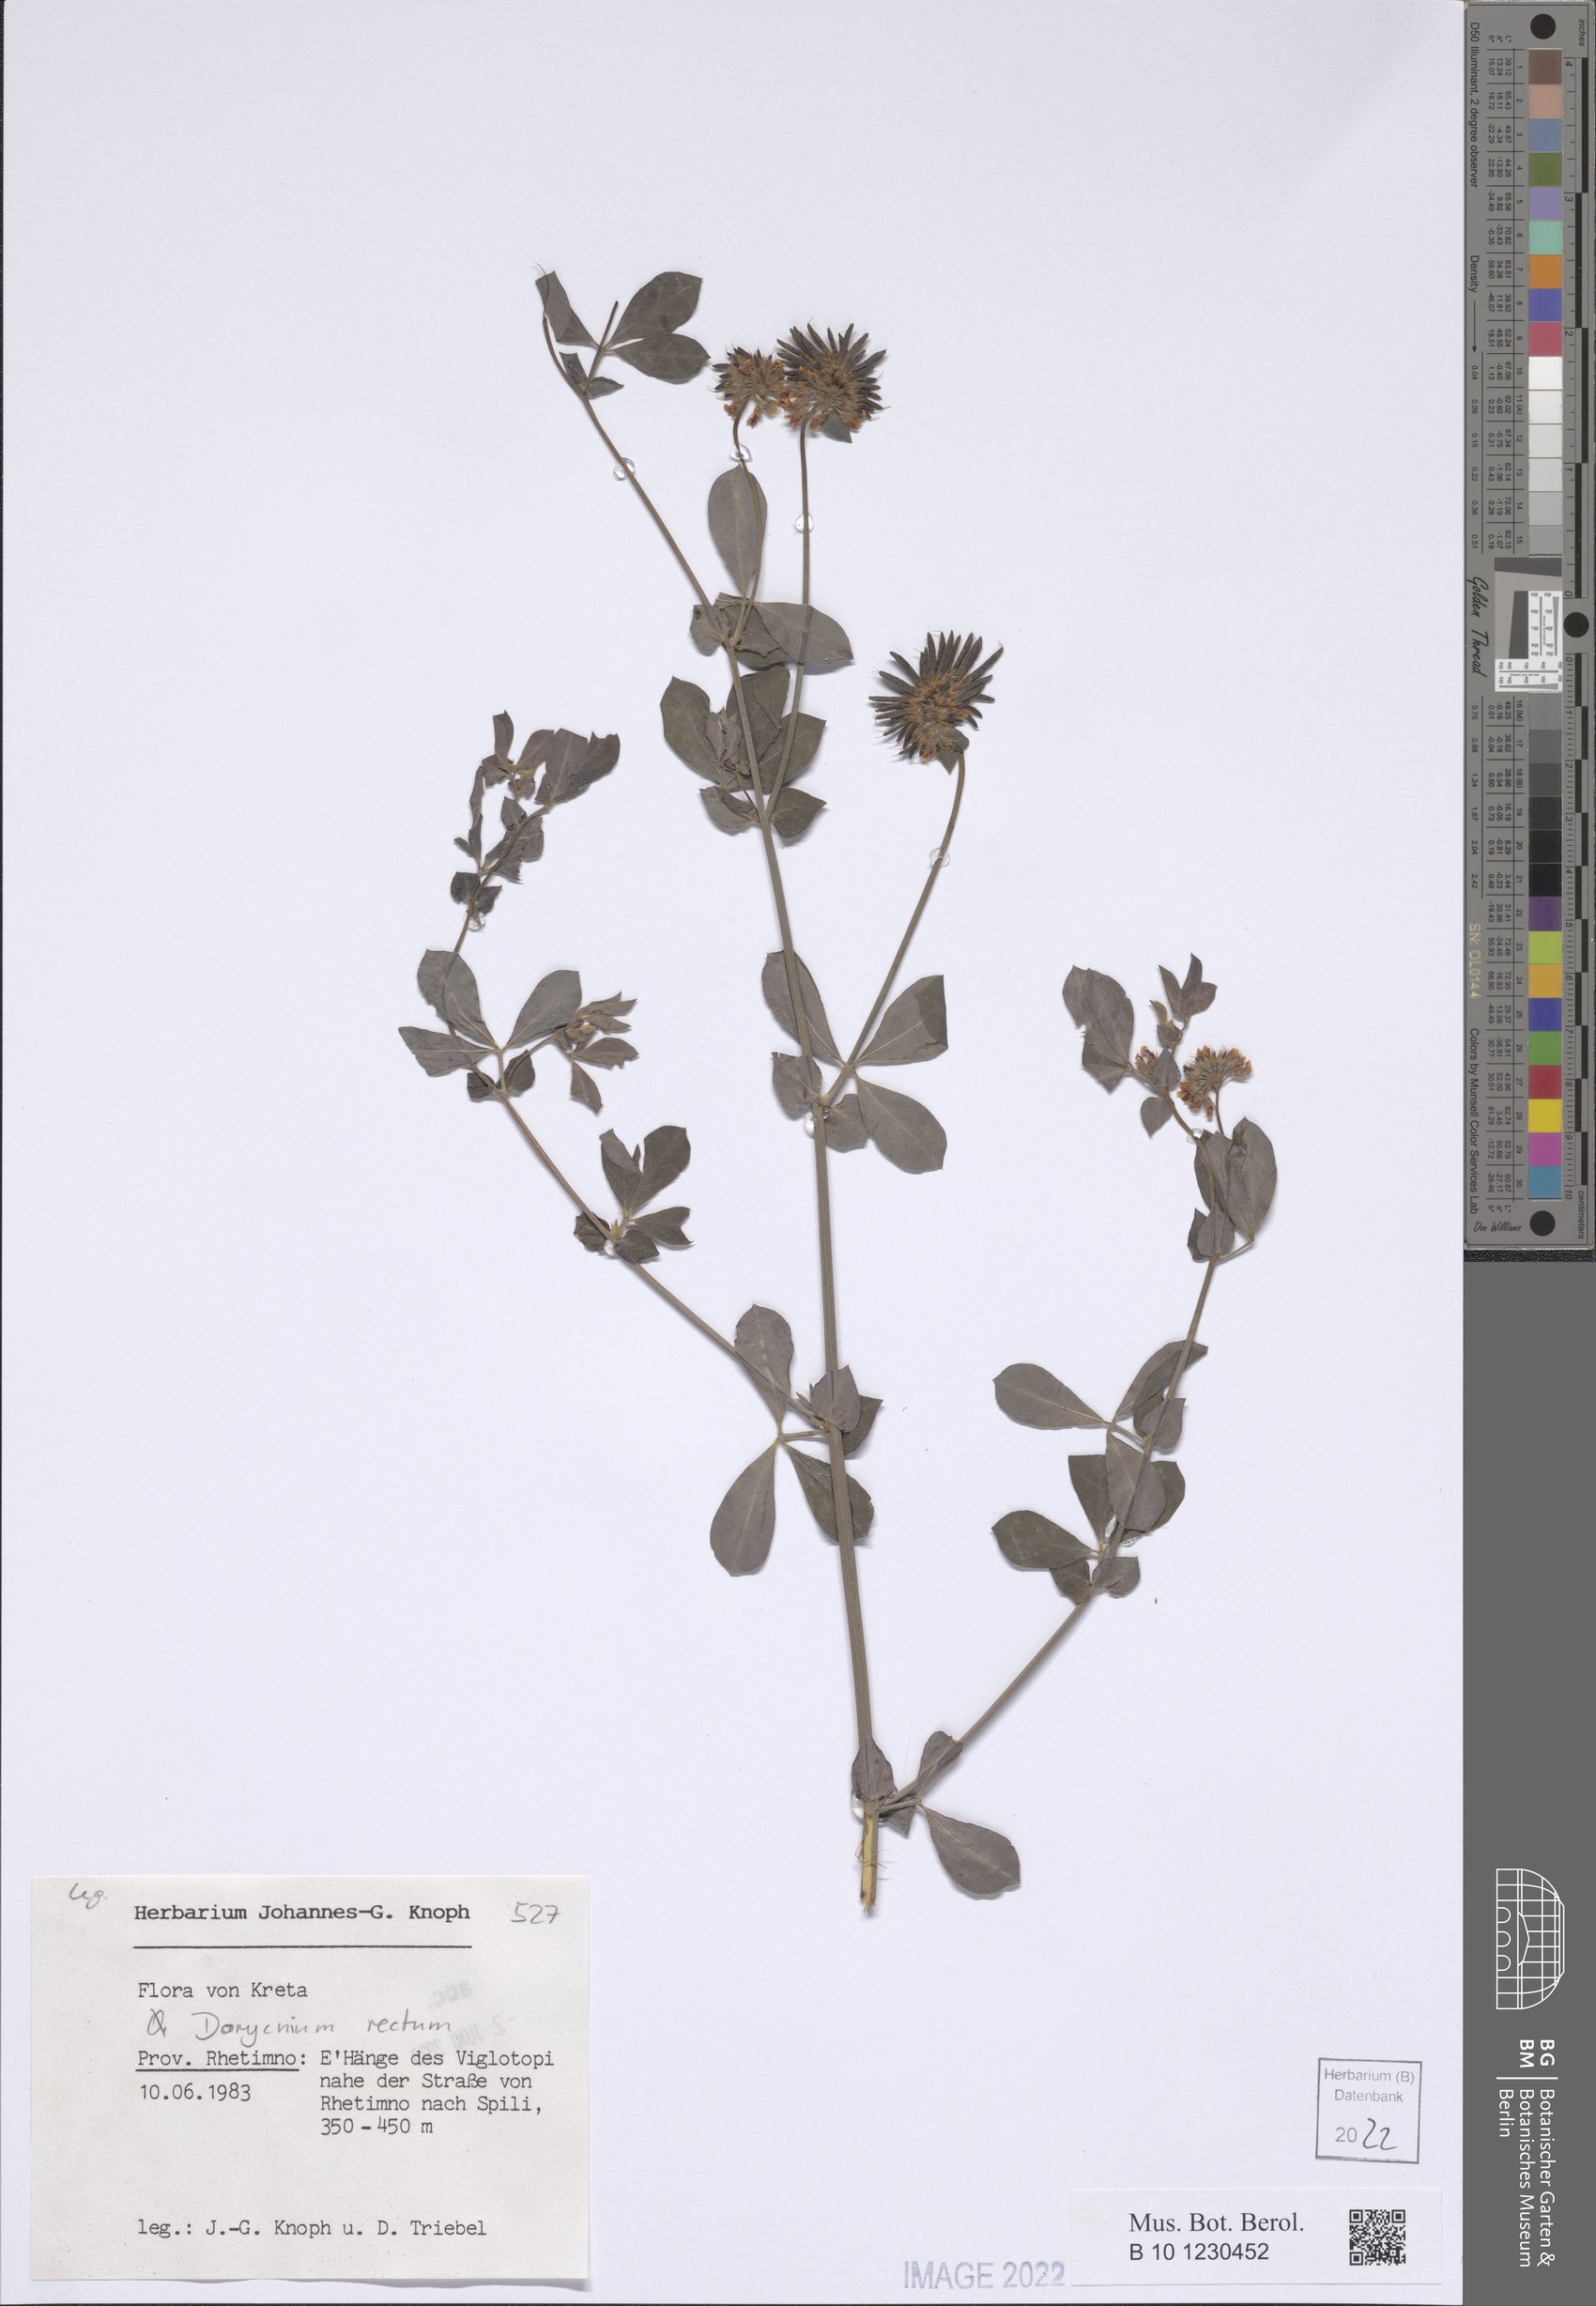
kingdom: Plantae
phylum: Tracheophyta
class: Magnoliopsida
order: Fabales
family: Fabaceae
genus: Lotus
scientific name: Lotus rectus
